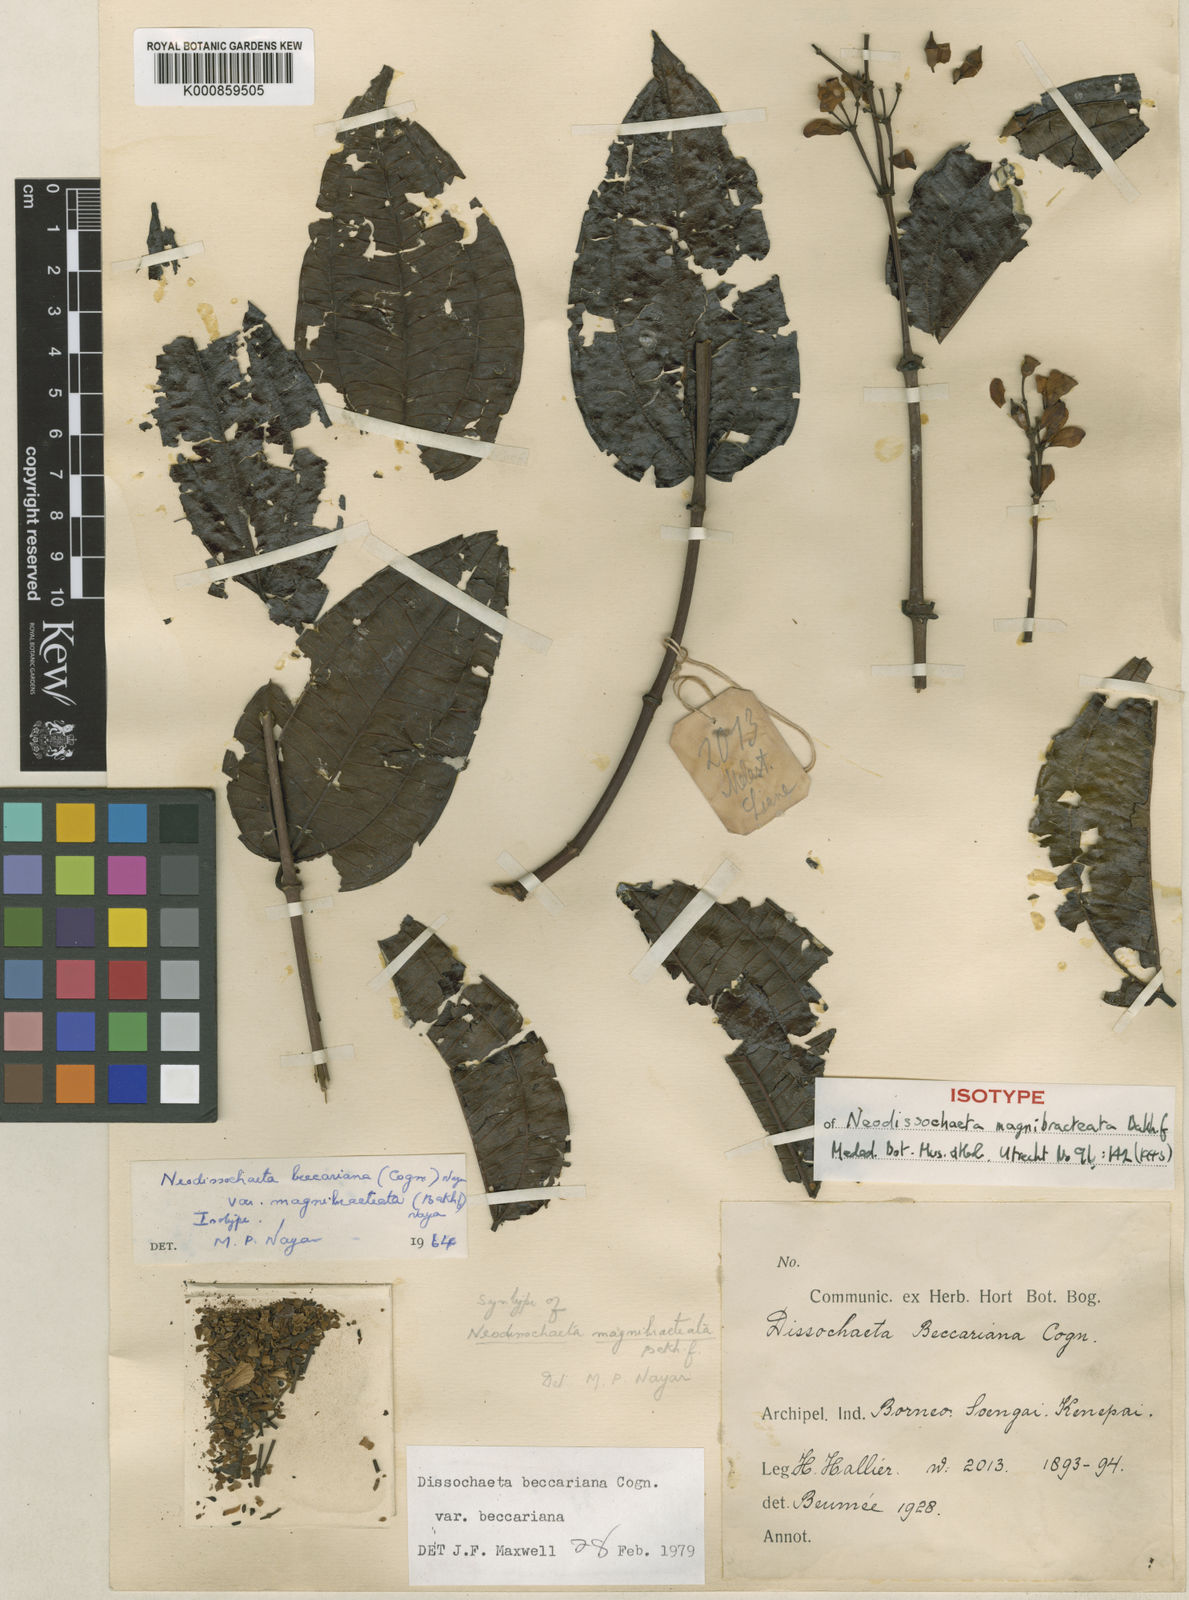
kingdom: Plantae
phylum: Tracheophyta
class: Magnoliopsida
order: Myrtales
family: Melastomataceae
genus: Dalenia
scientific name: Dalenia magnibracteata
